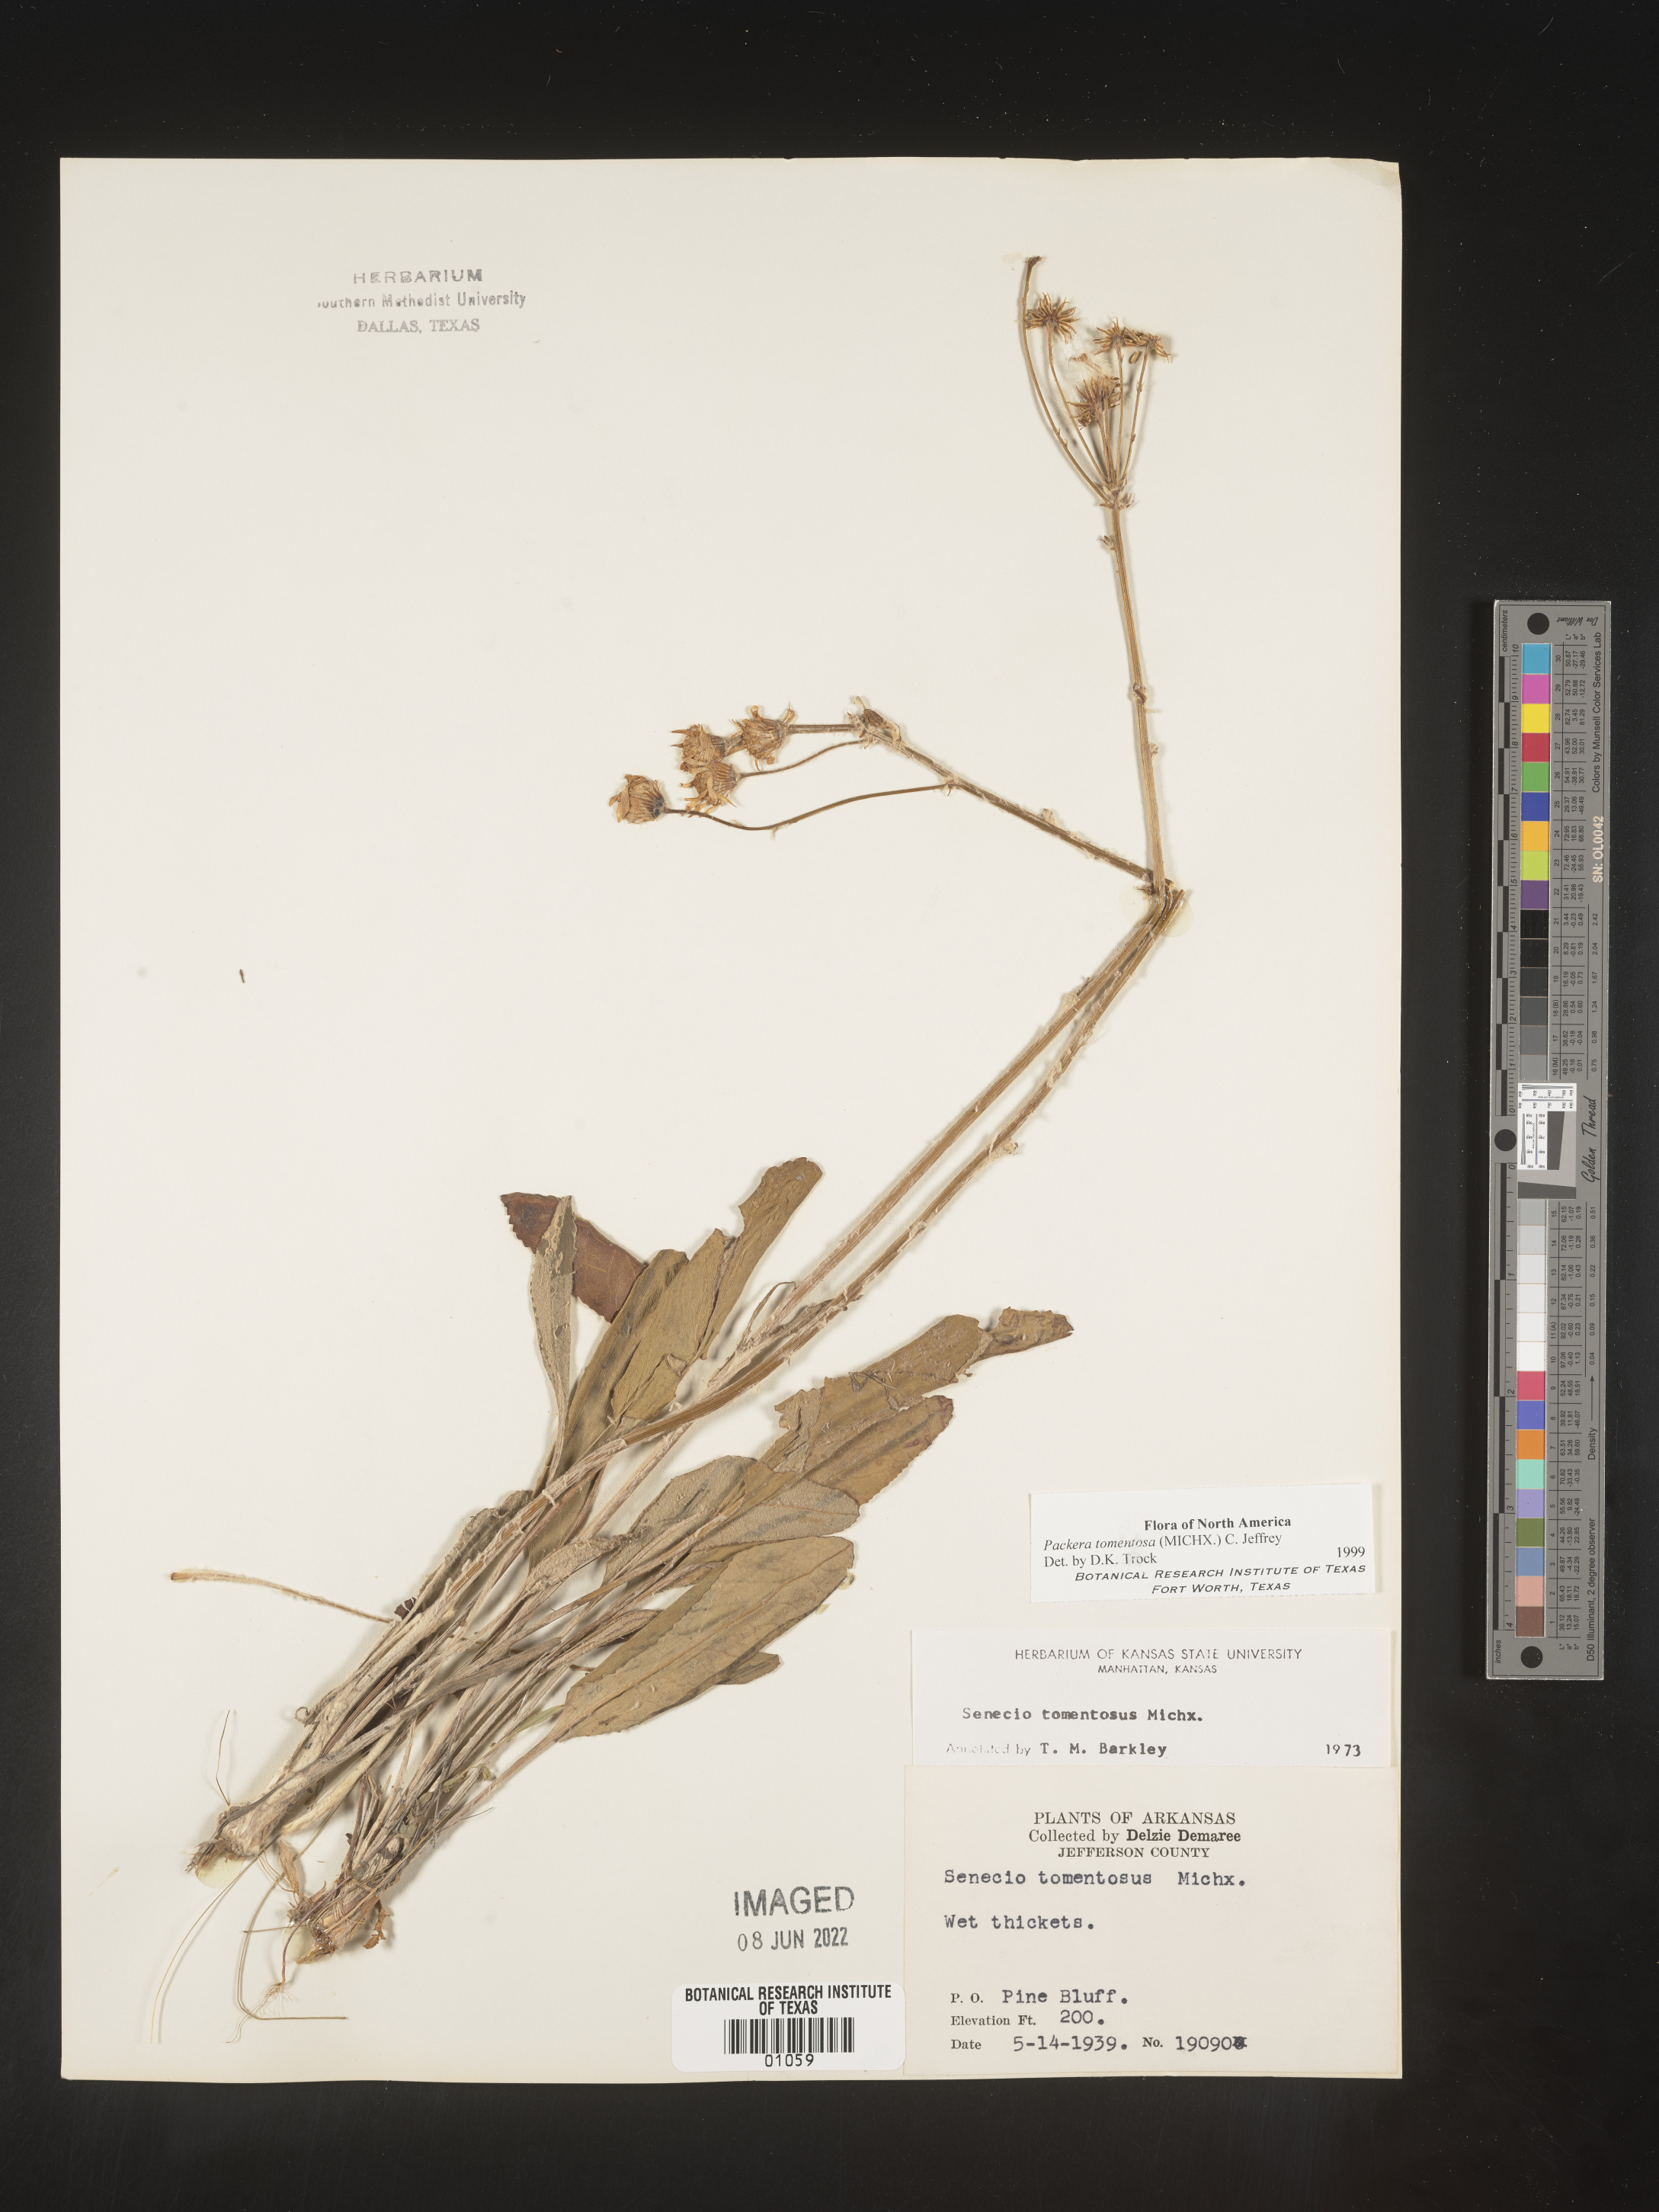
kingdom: Plantae
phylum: Tracheophyta
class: Magnoliopsida
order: Asterales
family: Asteraceae
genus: Packera
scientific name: Packera dubia
